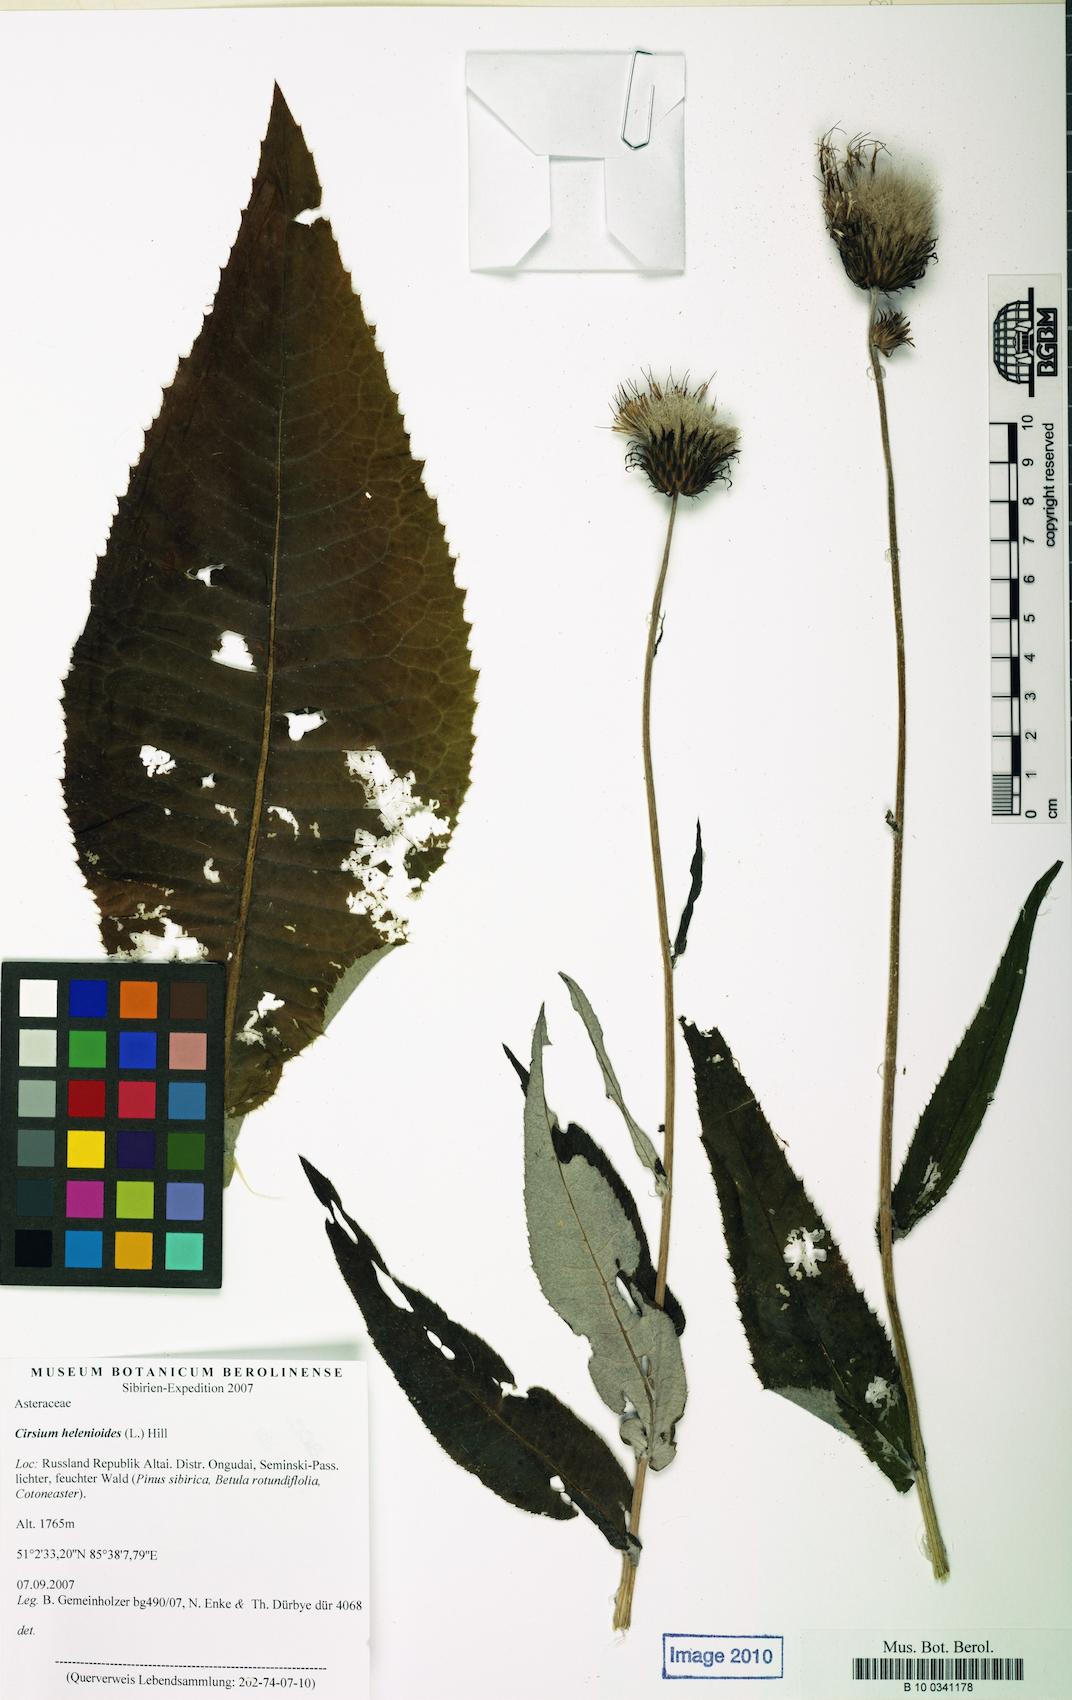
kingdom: Plantae
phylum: Tracheophyta
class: Magnoliopsida
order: Asterales
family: Asteraceae
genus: Cirsium
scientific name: Cirsium helenioides
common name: Melancholy thistle
